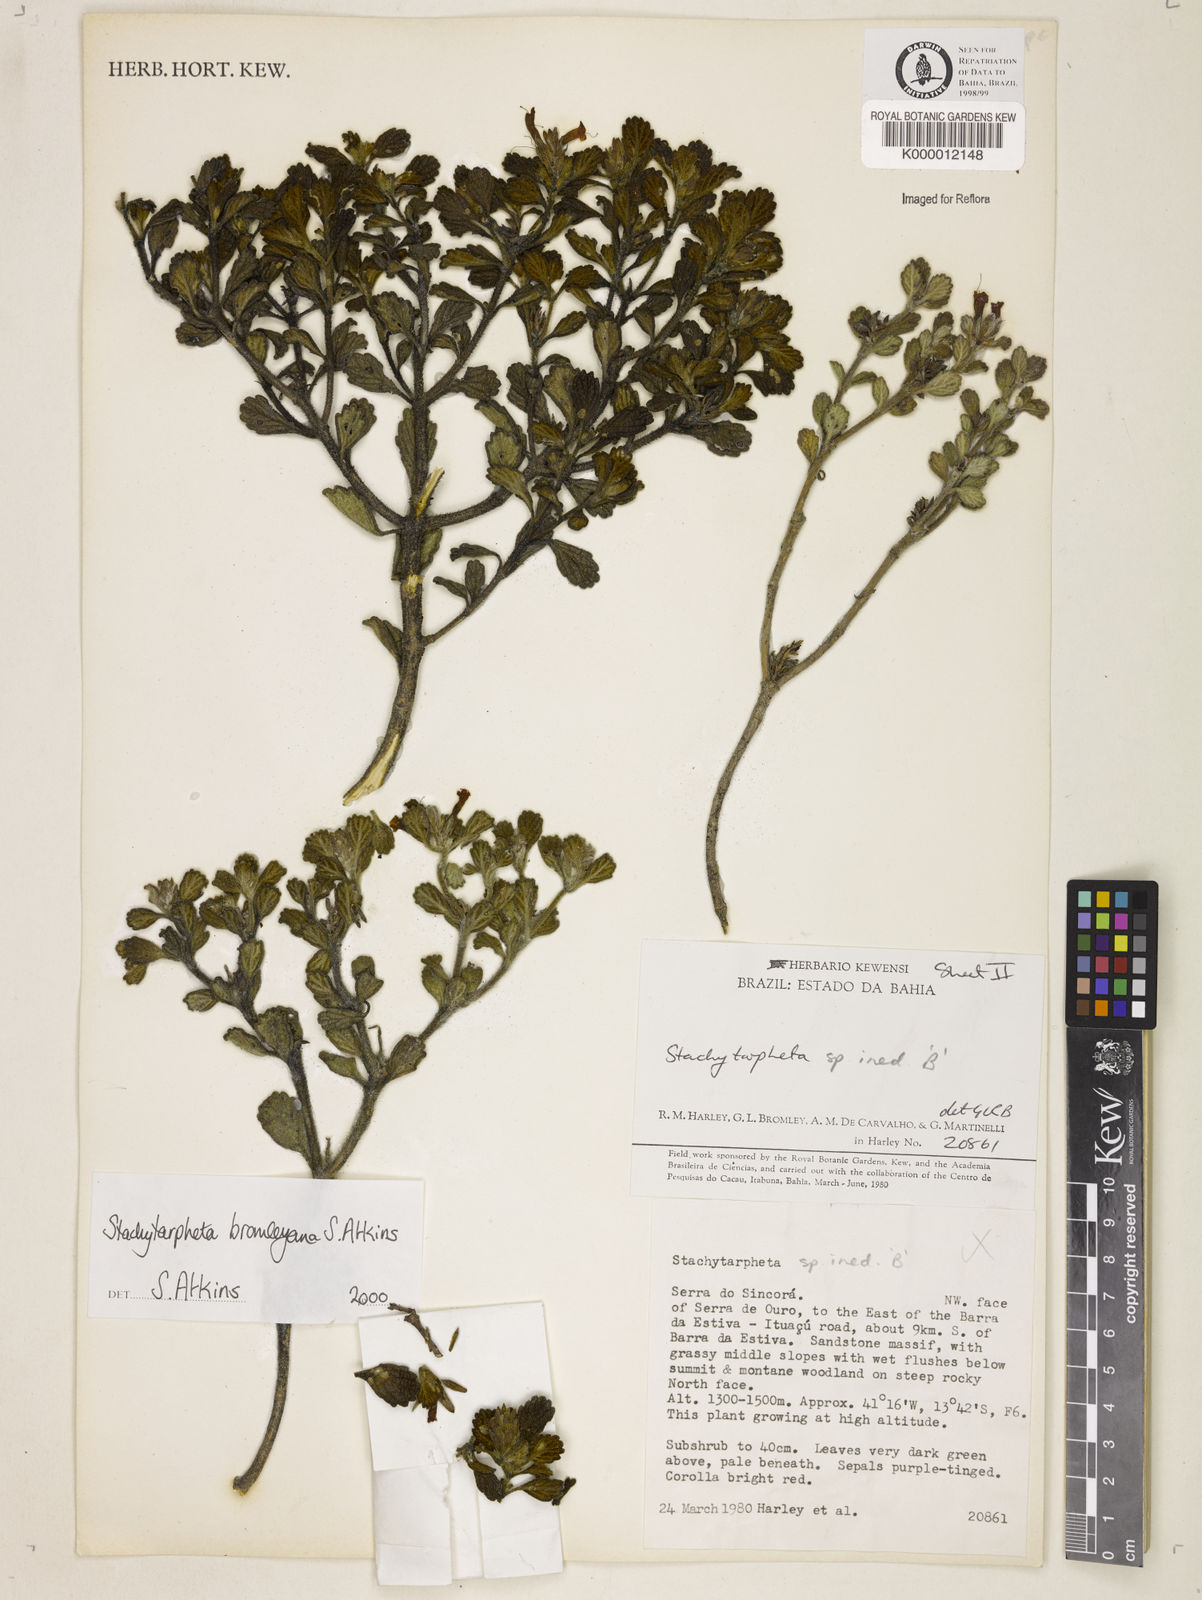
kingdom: Plantae
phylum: Tracheophyta
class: Magnoliopsida
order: Lamiales
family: Verbenaceae
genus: Stachytarpheta
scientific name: Stachytarpheta bromleyana
